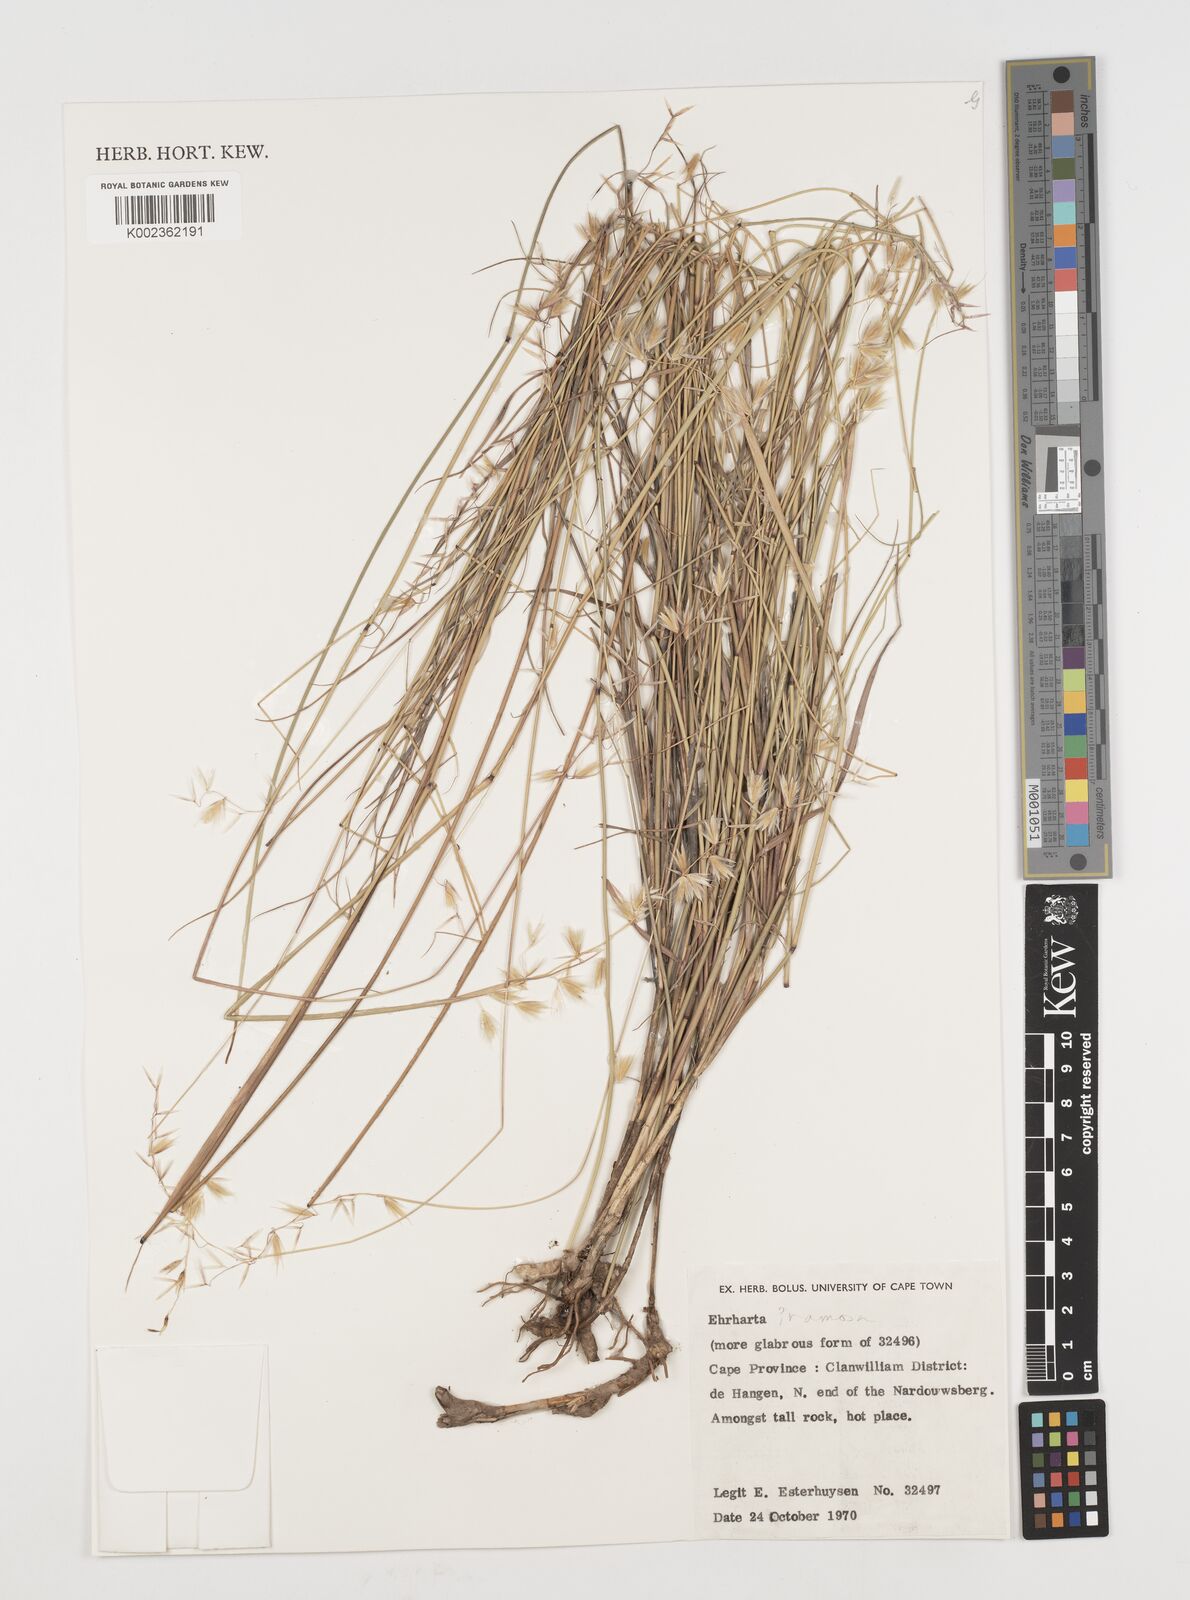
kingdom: Plantae
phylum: Tracheophyta
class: Liliopsida
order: Poales
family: Poaceae
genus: Ehrharta
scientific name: Ehrharta
